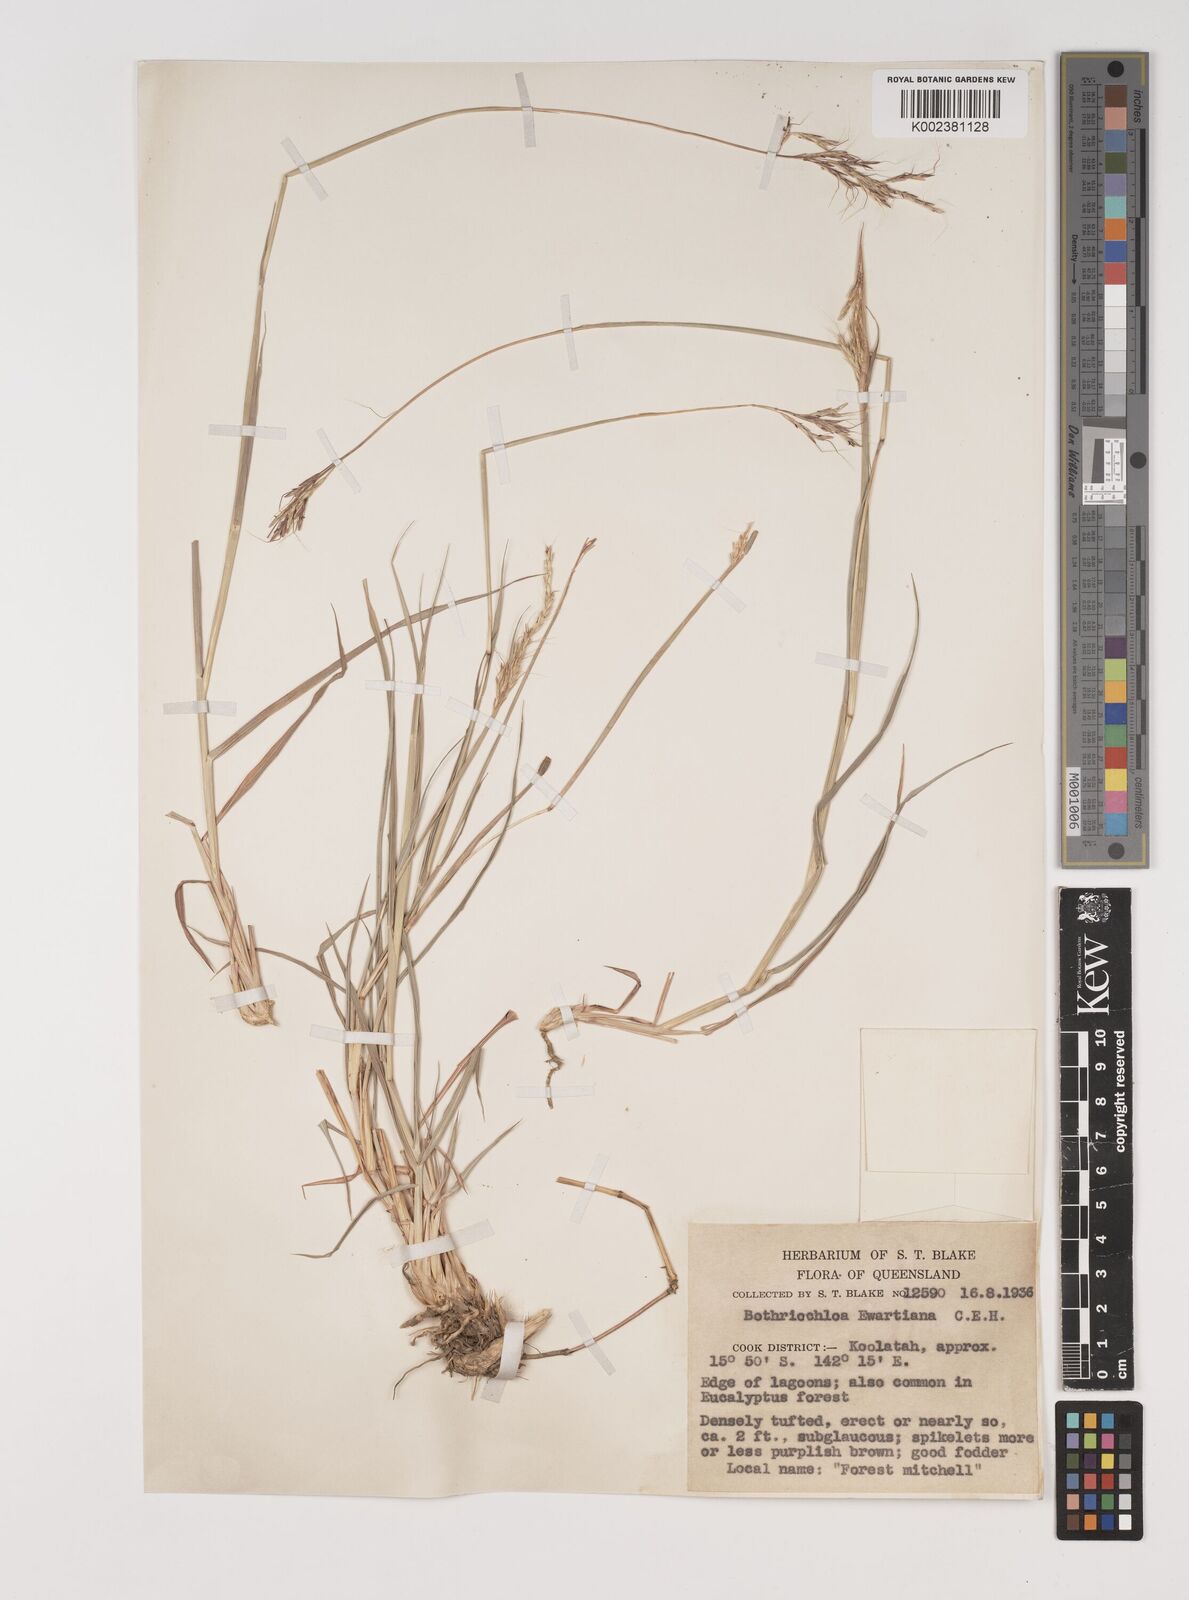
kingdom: Plantae
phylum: Tracheophyta
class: Liliopsida
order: Poales
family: Poaceae
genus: Bothriochloa
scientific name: Bothriochloa ewartiana
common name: Desert-bluegrass
